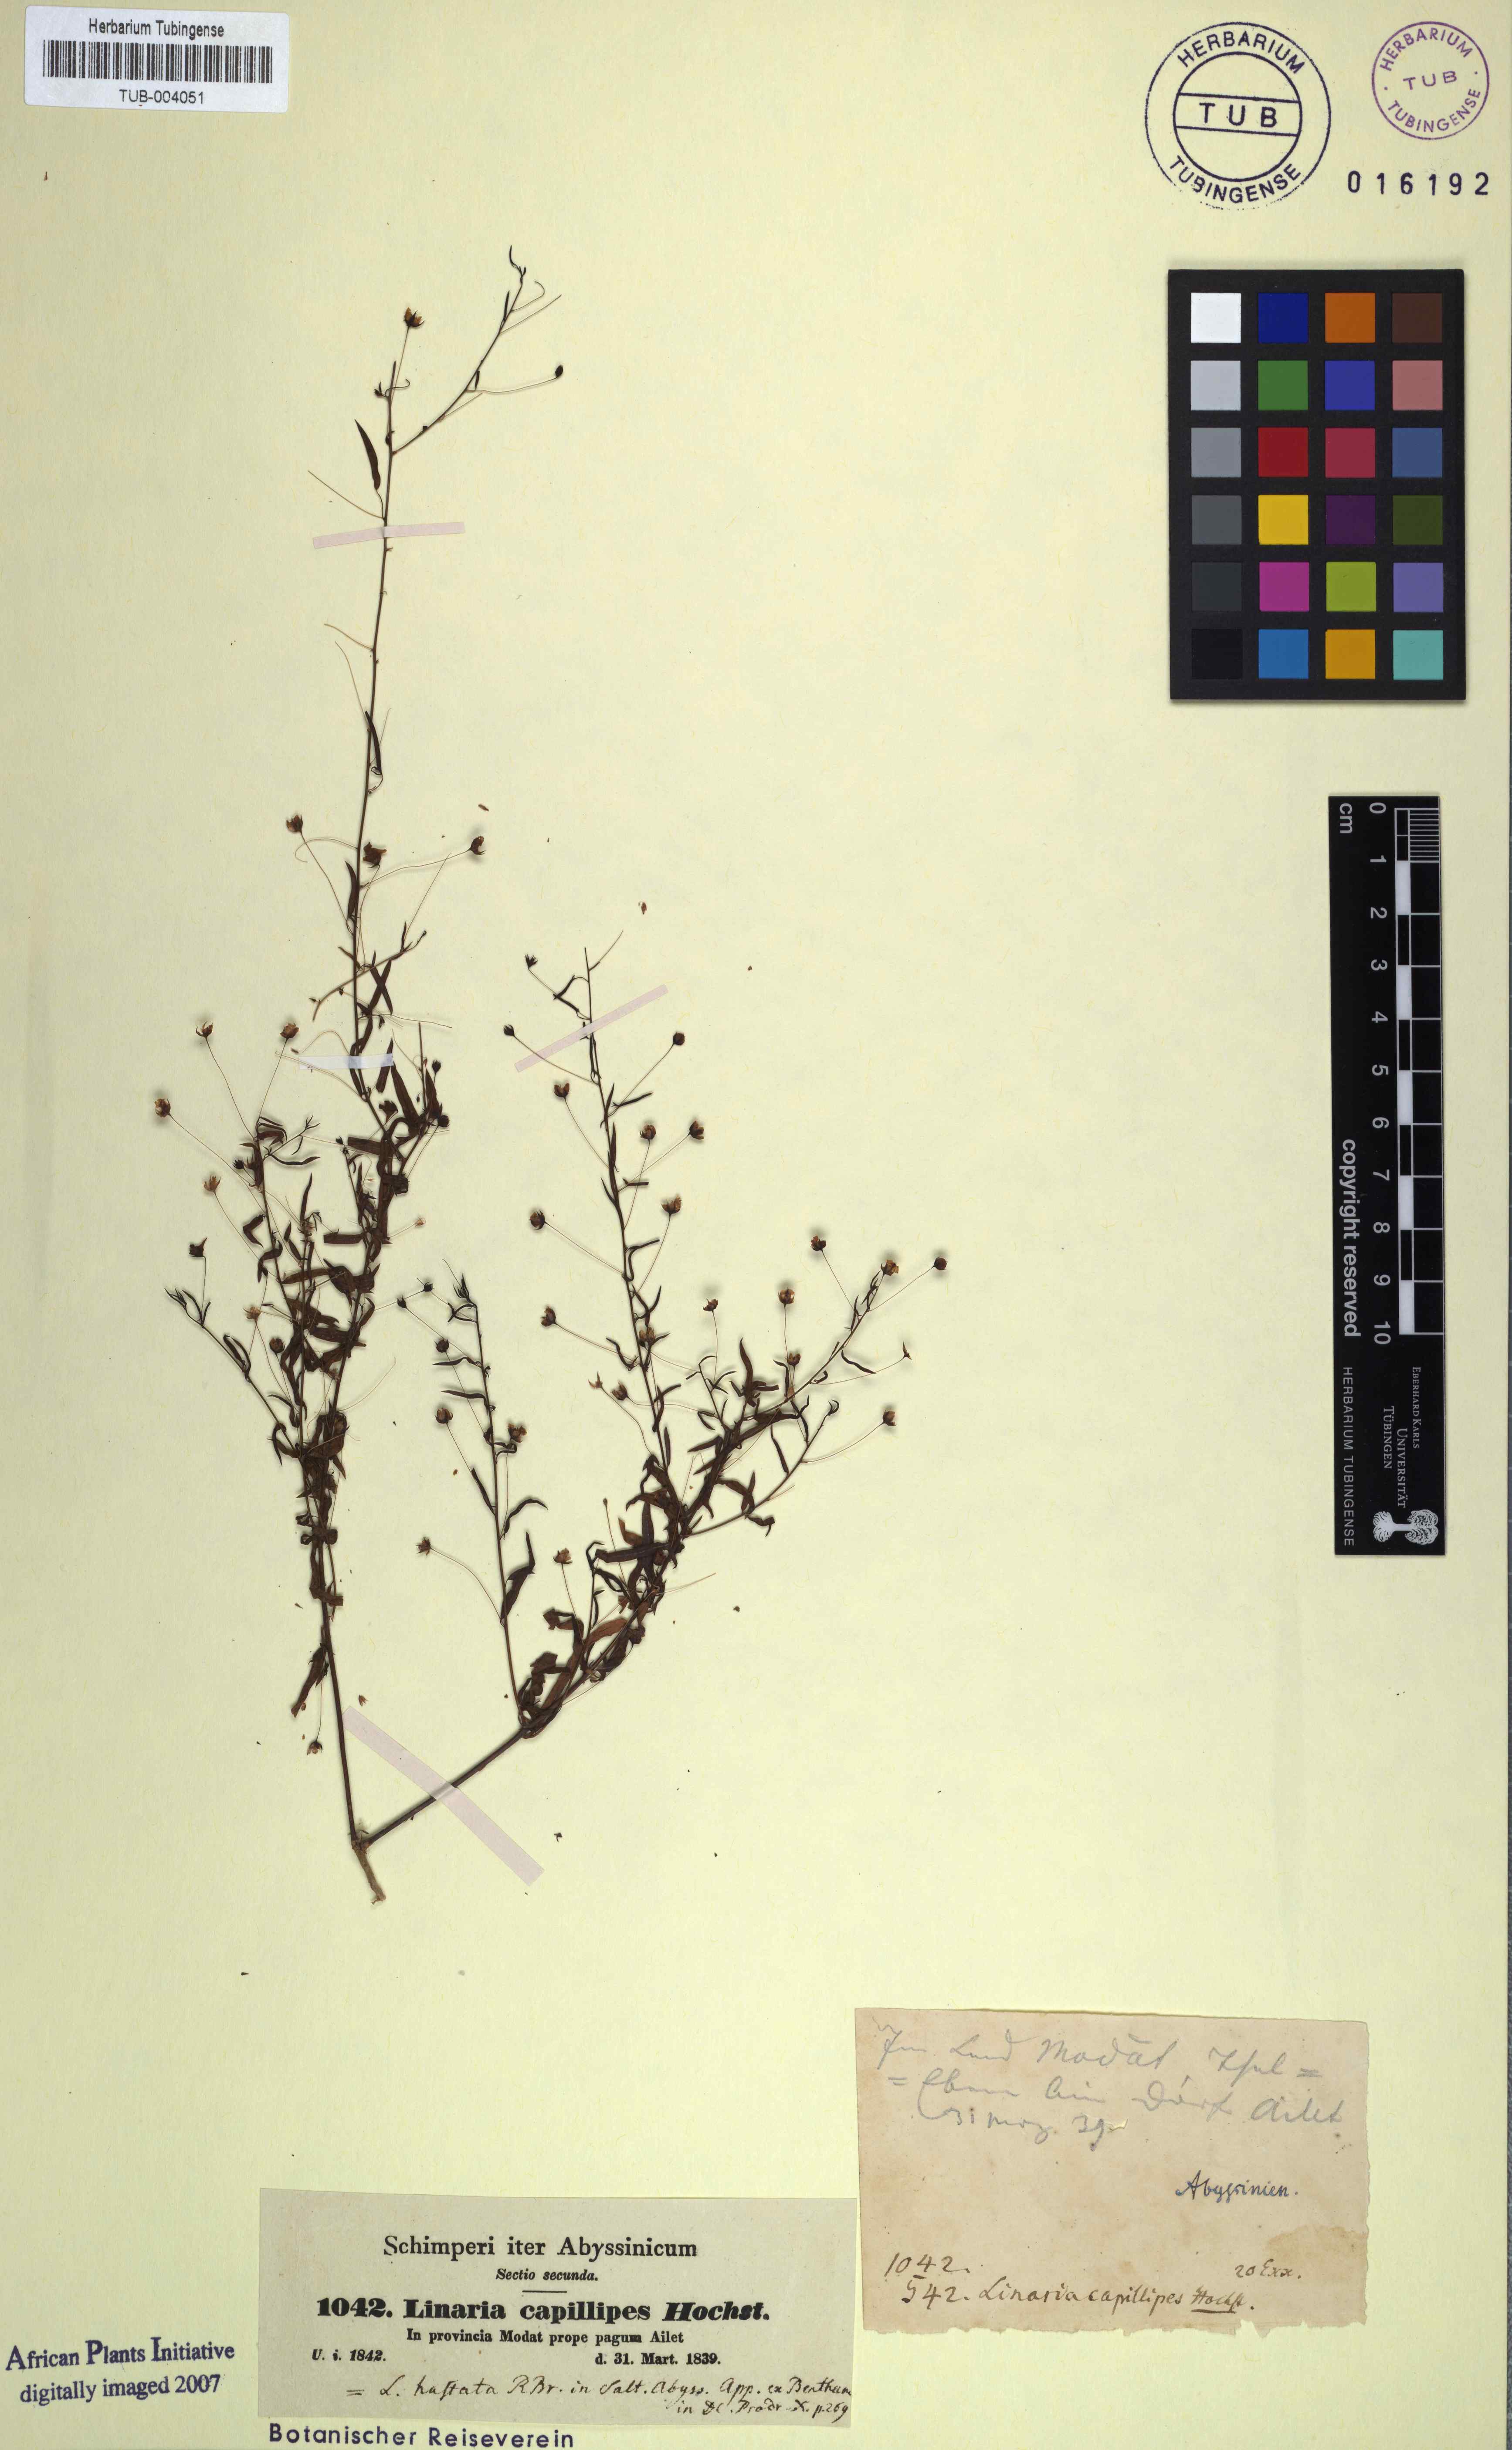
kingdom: Plantae
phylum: Tracheophyta
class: Magnoliopsida
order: Lamiales
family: Plantaginaceae
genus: Nanorrhinum
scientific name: Nanorrhinum hastatum
